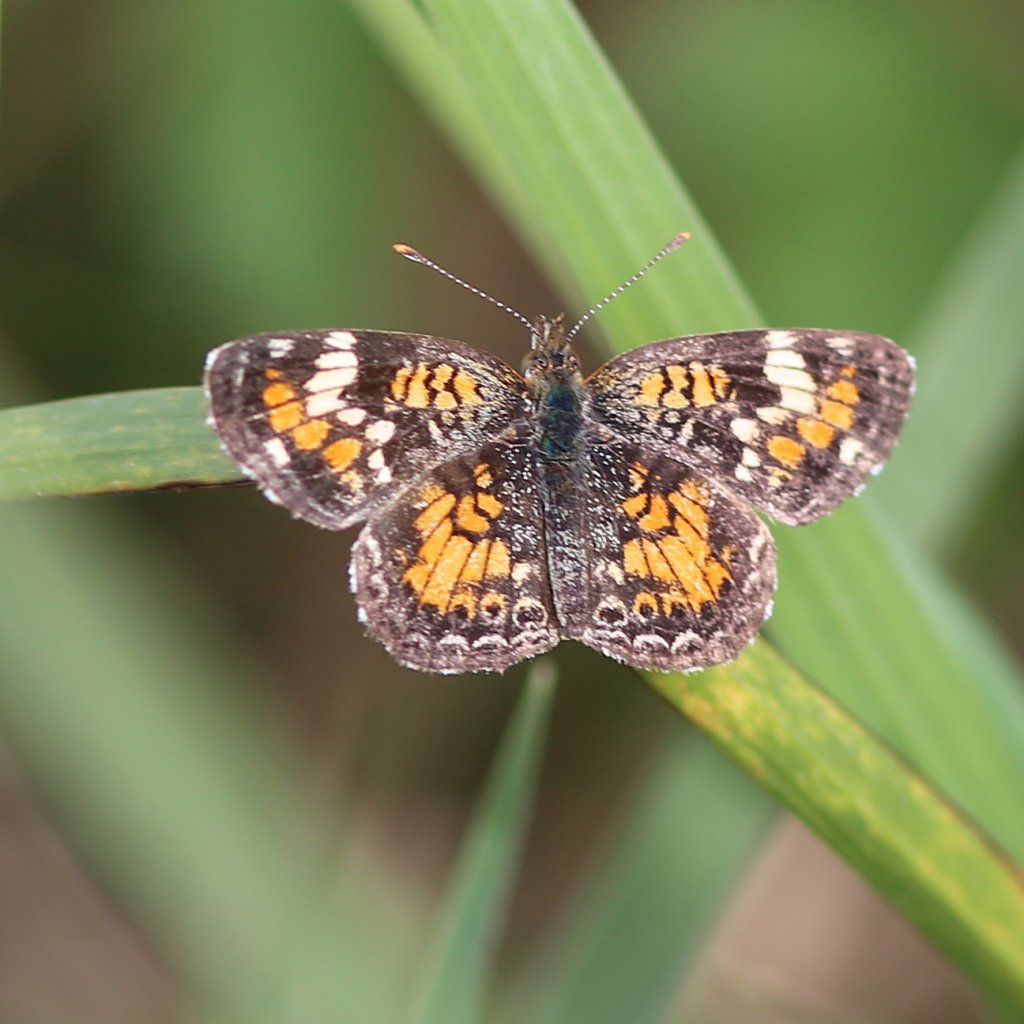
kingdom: Animalia
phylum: Arthropoda
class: Insecta
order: Lepidoptera
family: Nymphalidae
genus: Phyciodes
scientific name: Phyciodes phaon
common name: Phaon Crescent
